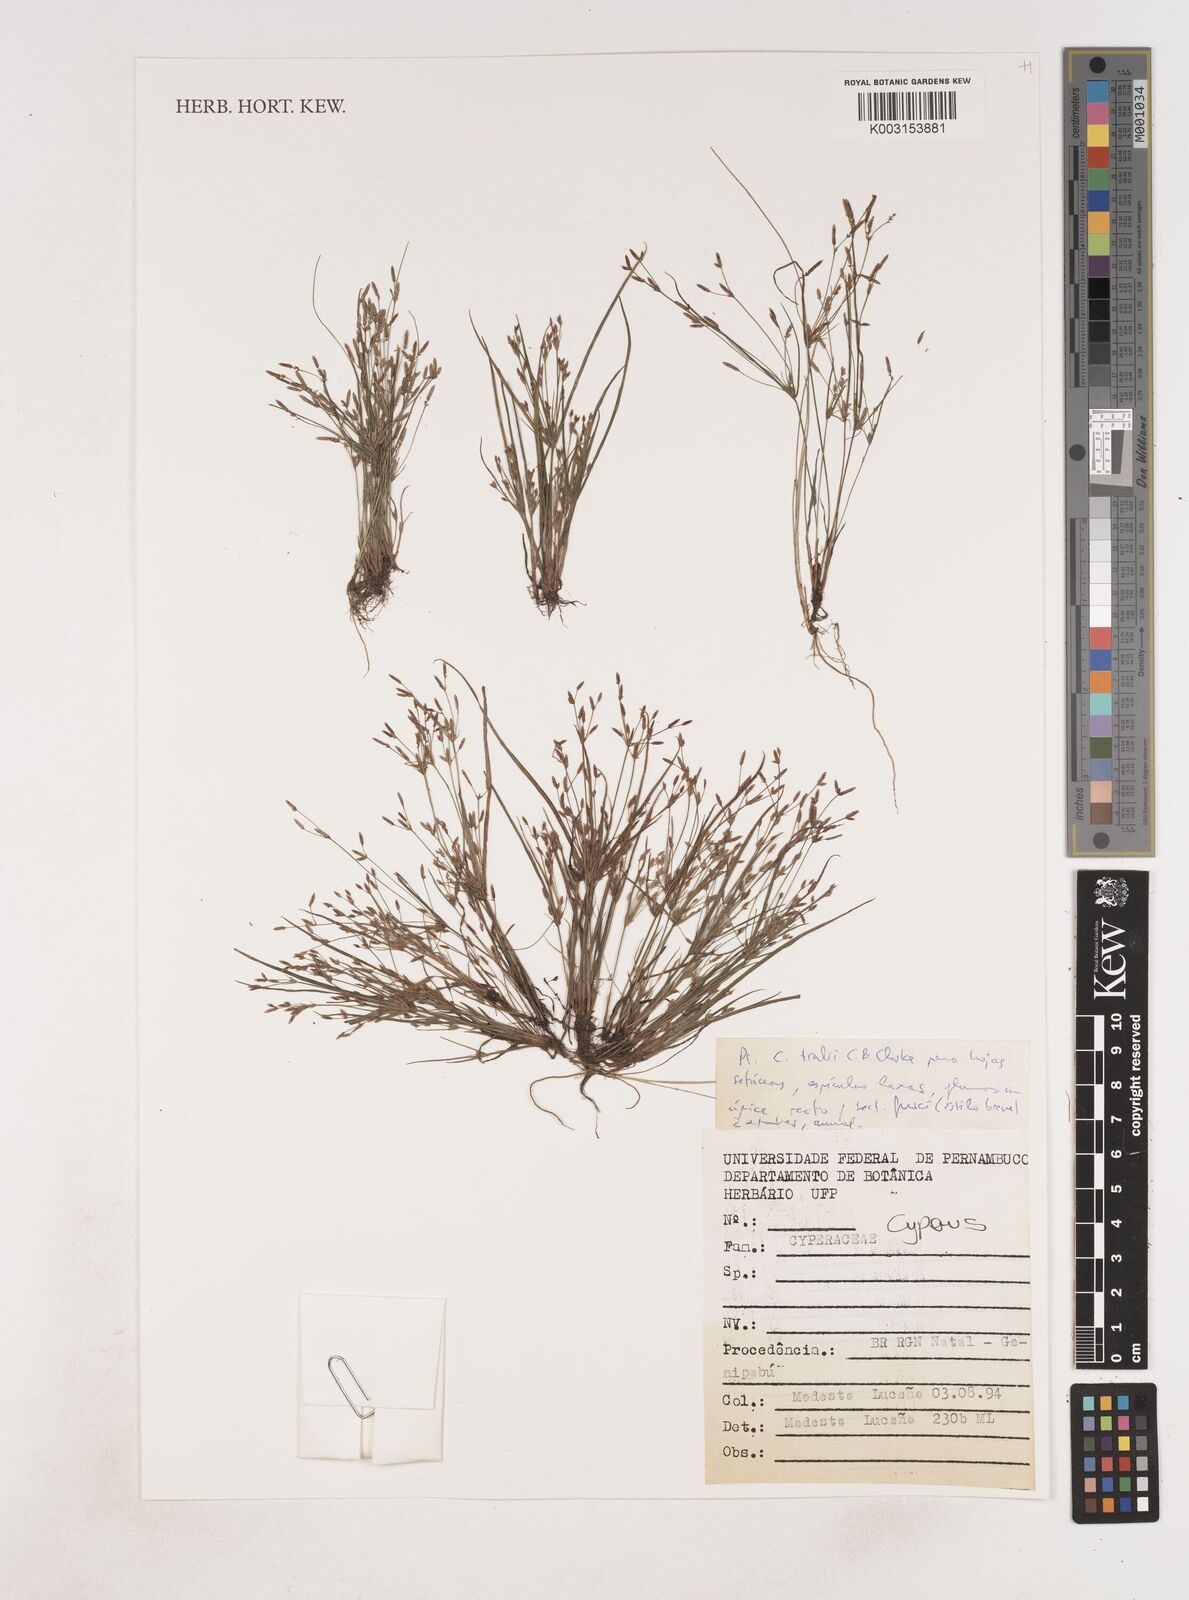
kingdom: Plantae
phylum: Tracheophyta
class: Liliopsida
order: Poales
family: Cyperaceae
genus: Cyperus
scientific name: Cyperus
